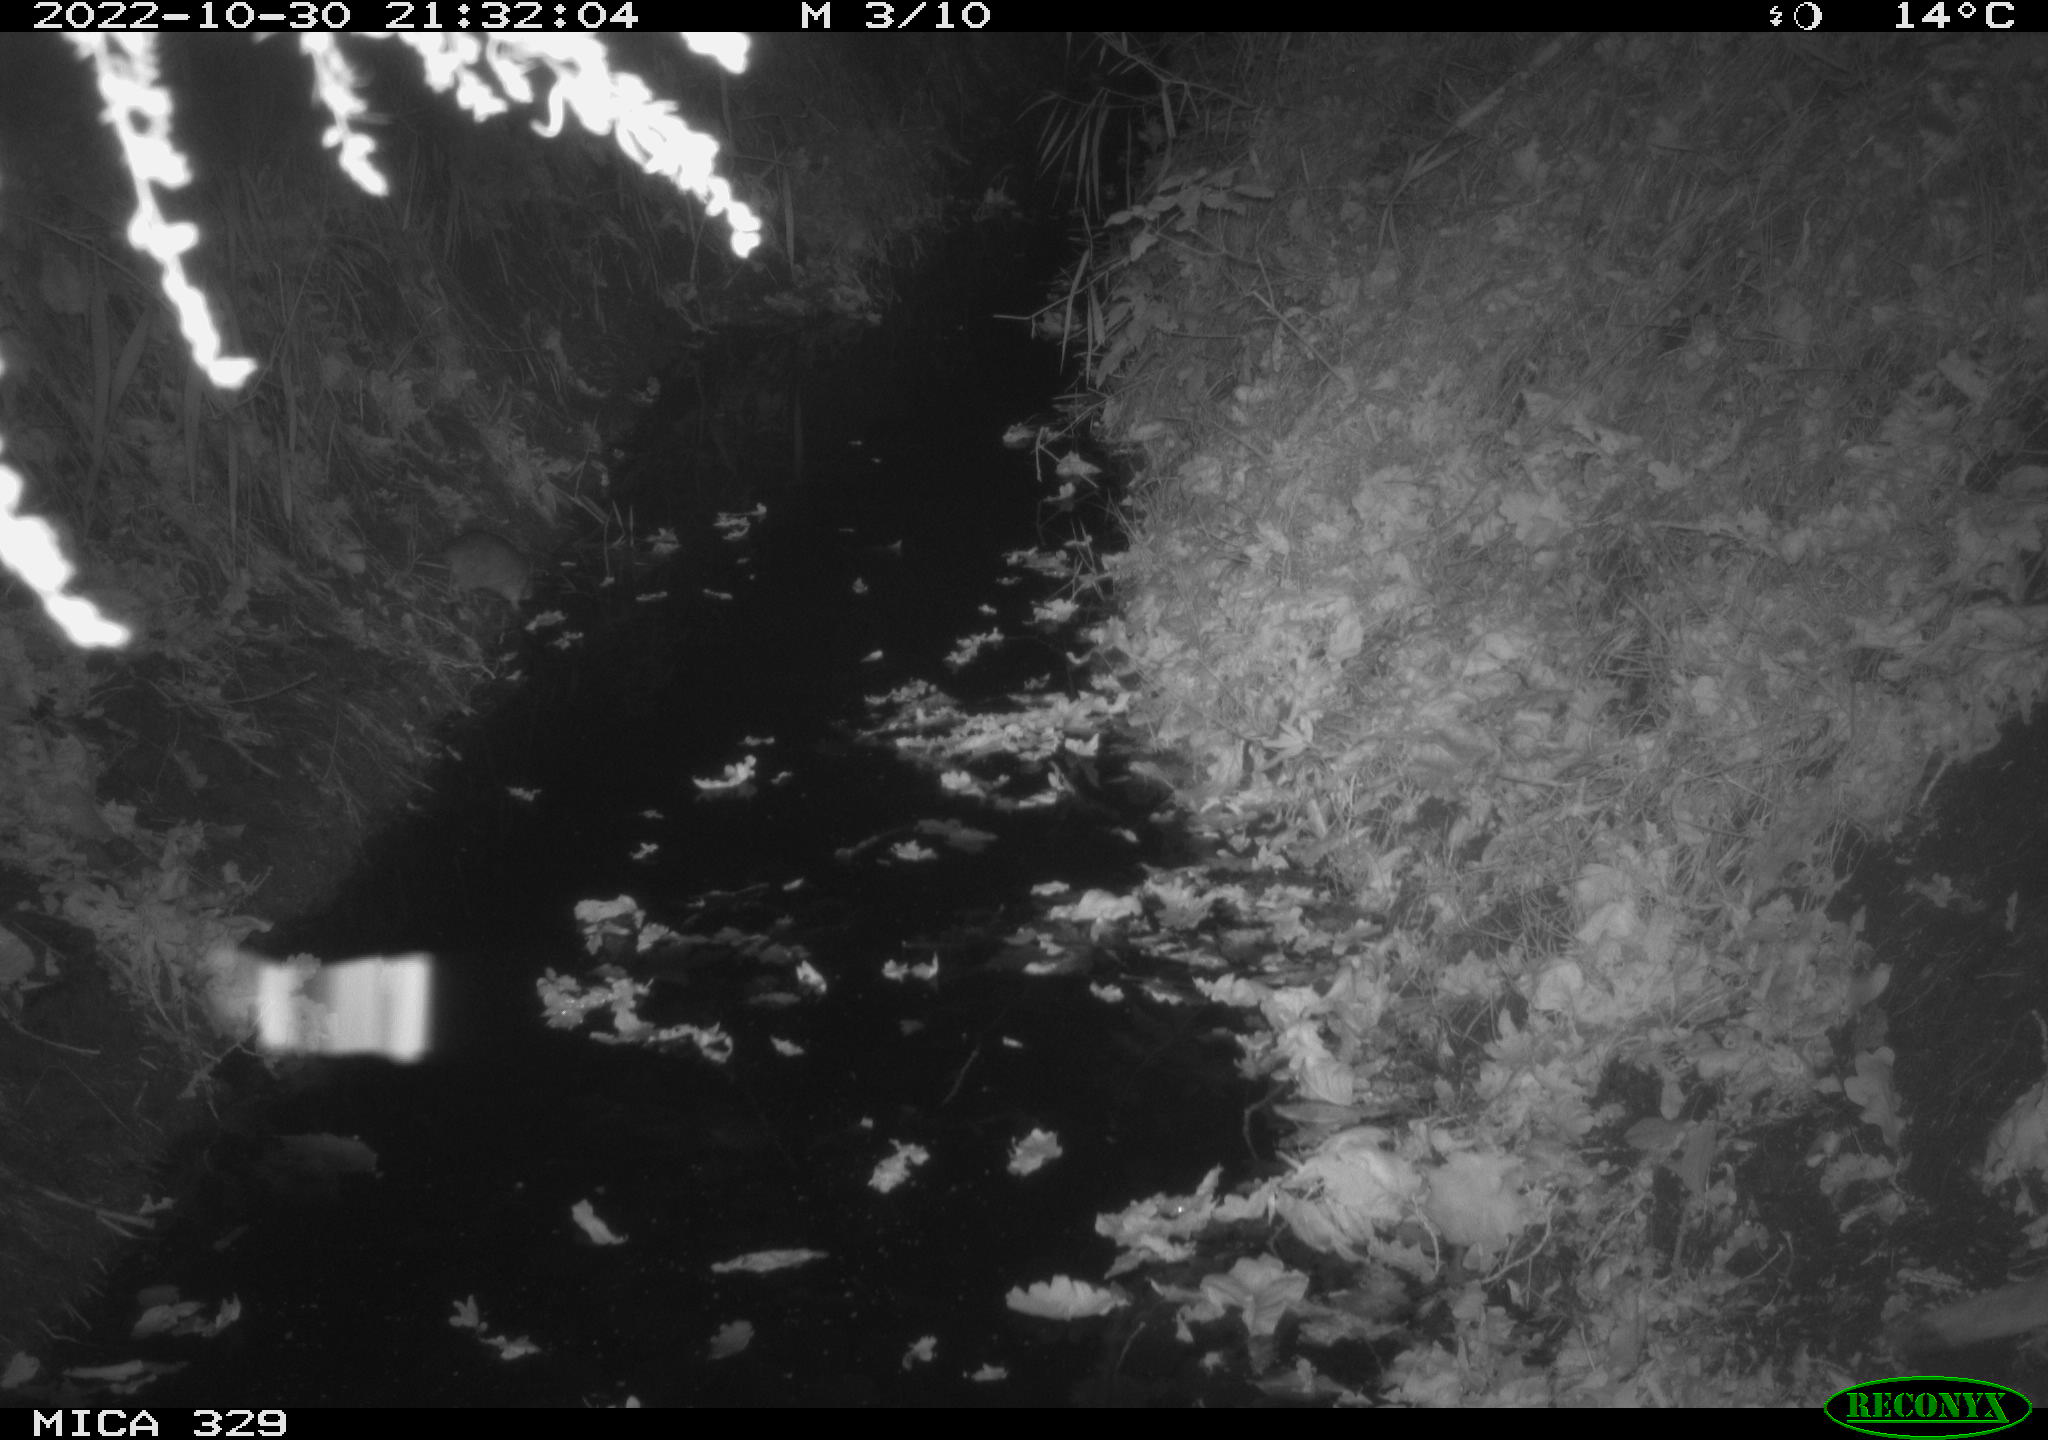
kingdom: Animalia
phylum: Chordata
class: Mammalia
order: Rodentia
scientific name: Rodentia
